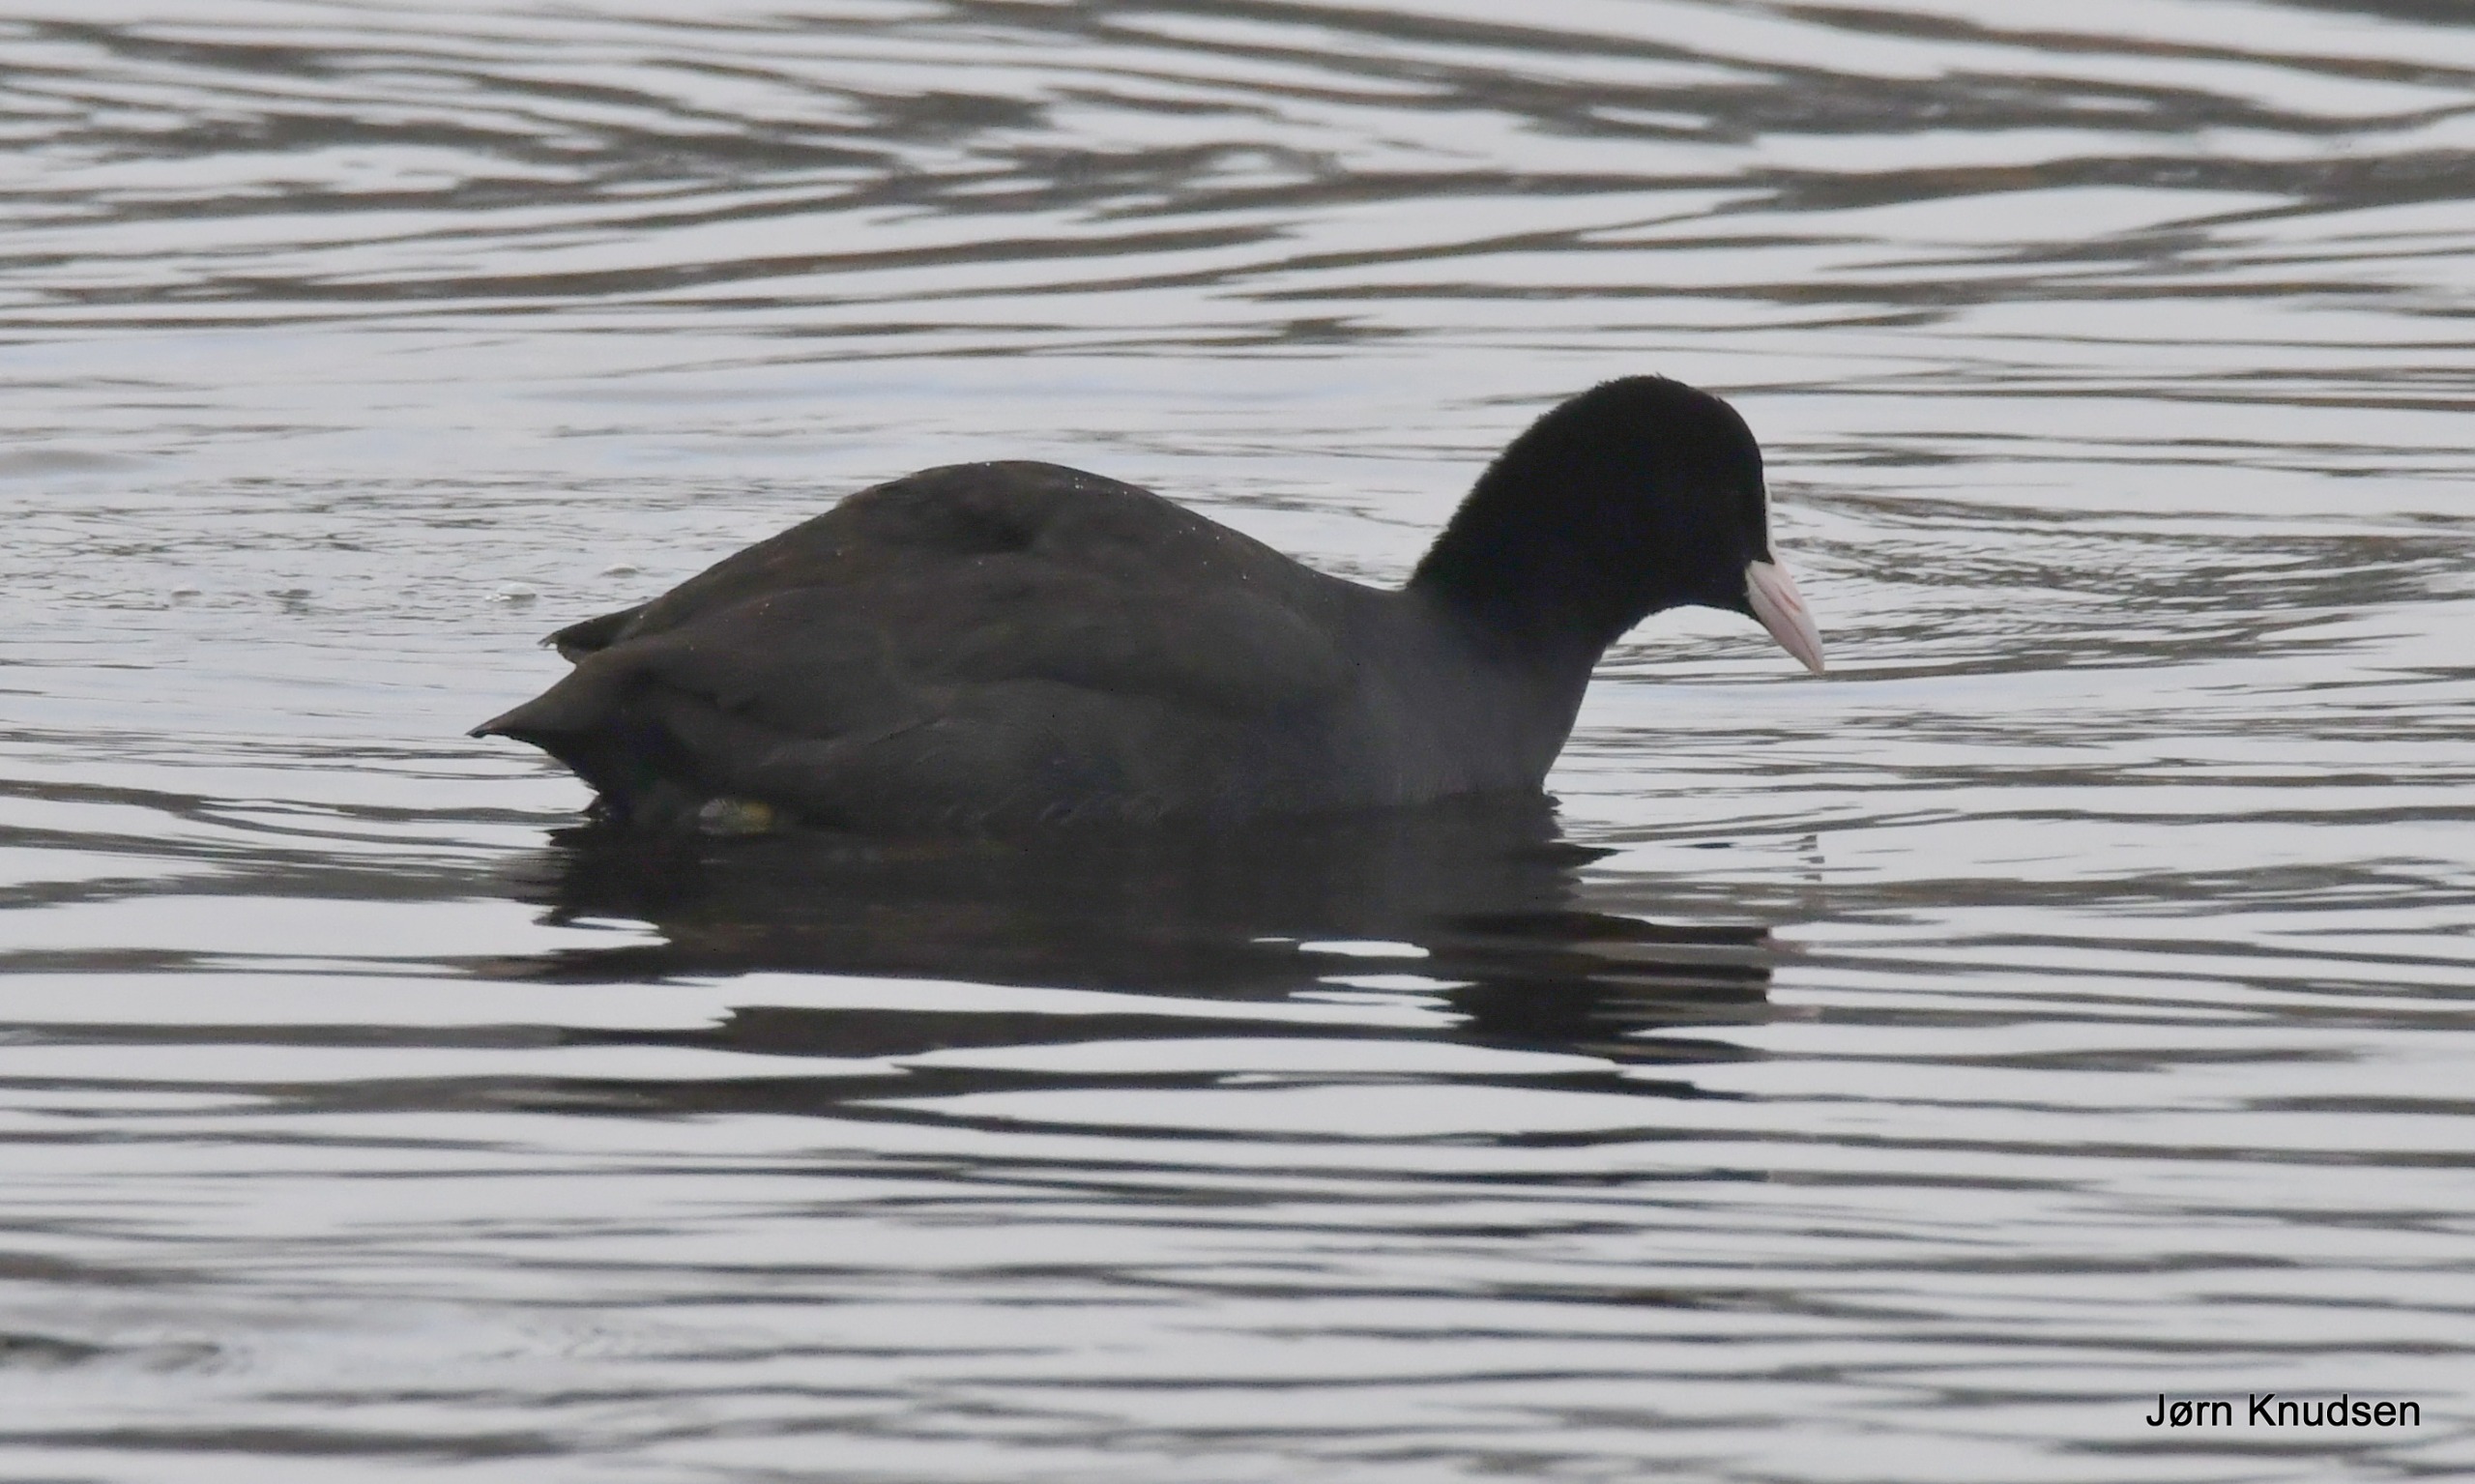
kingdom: Animalia
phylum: Chordata
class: Aves
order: Gruiformes
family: Rallidae
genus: Fulica
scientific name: Fulica atra
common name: Blishøne
